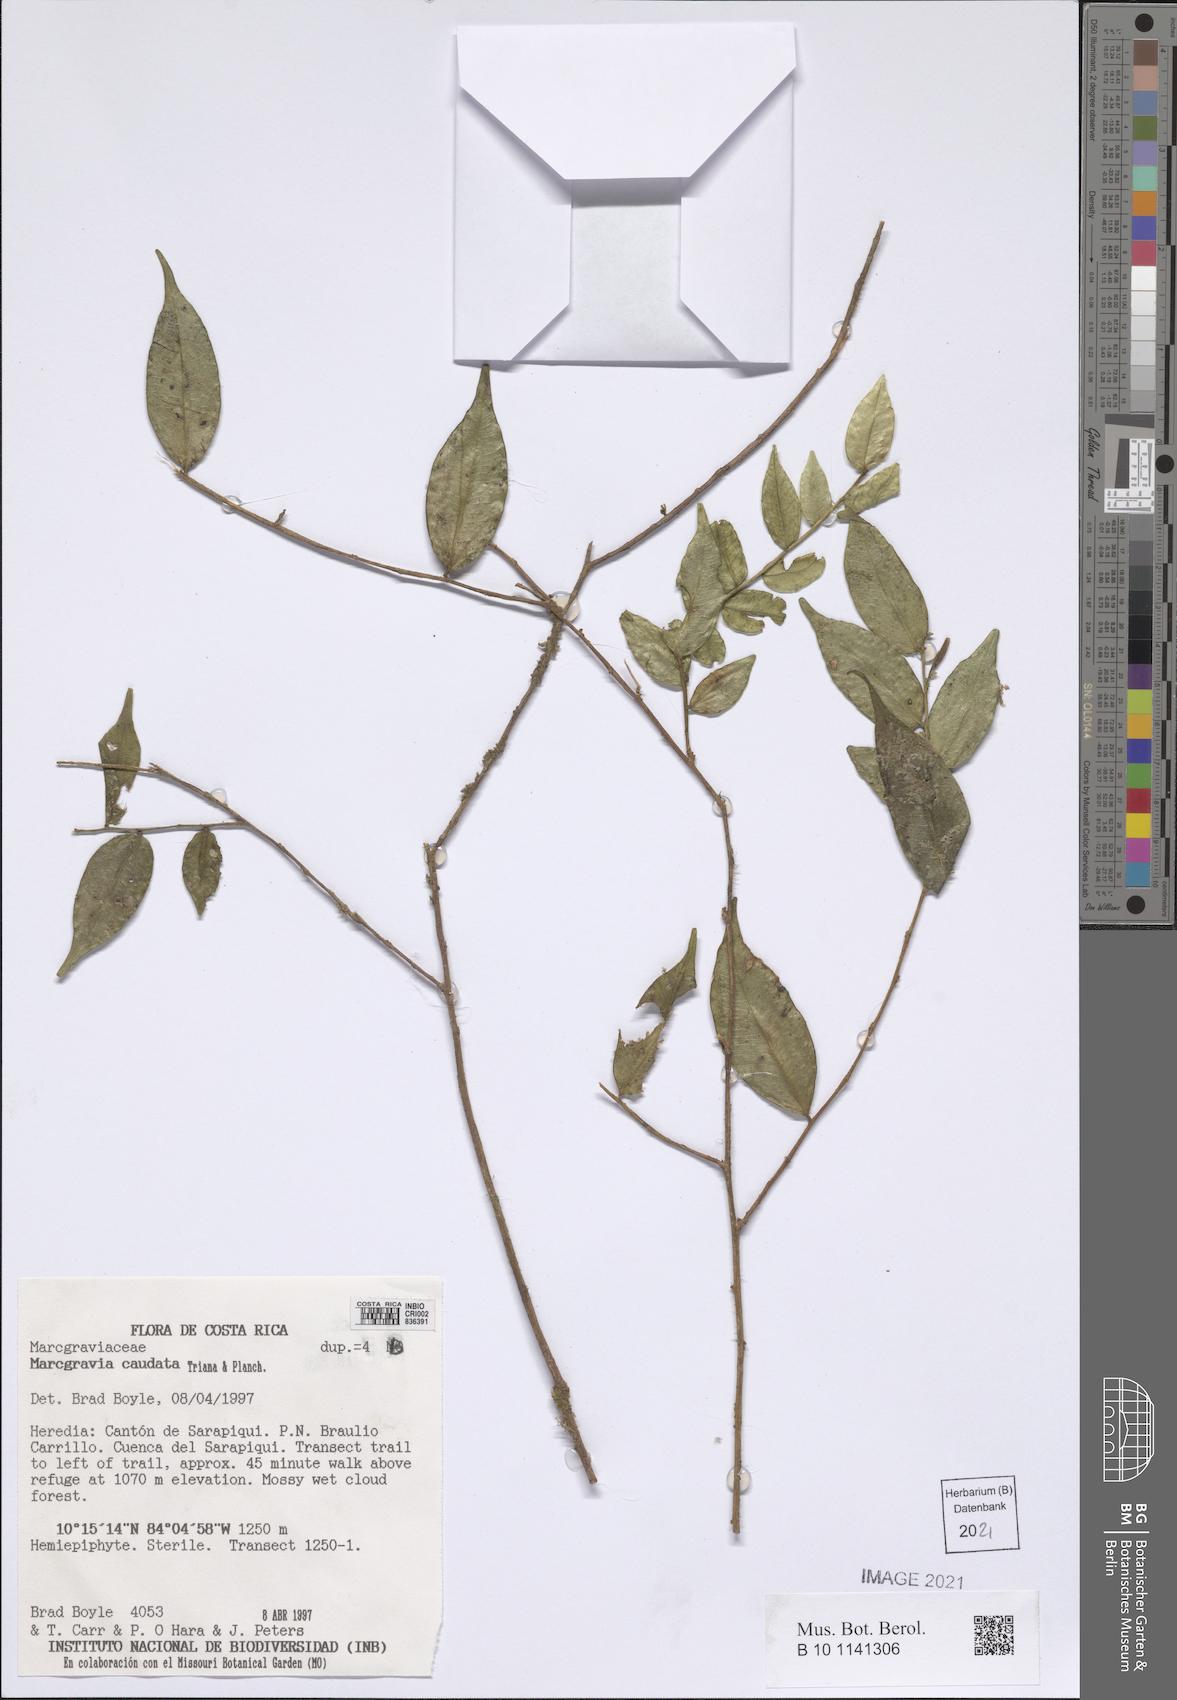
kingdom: Plantae
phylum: Tracheophyta
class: Magnoliopsida
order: Ericales
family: Marcgraviaceae
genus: Marcgravia
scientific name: Marcgravia caudata
